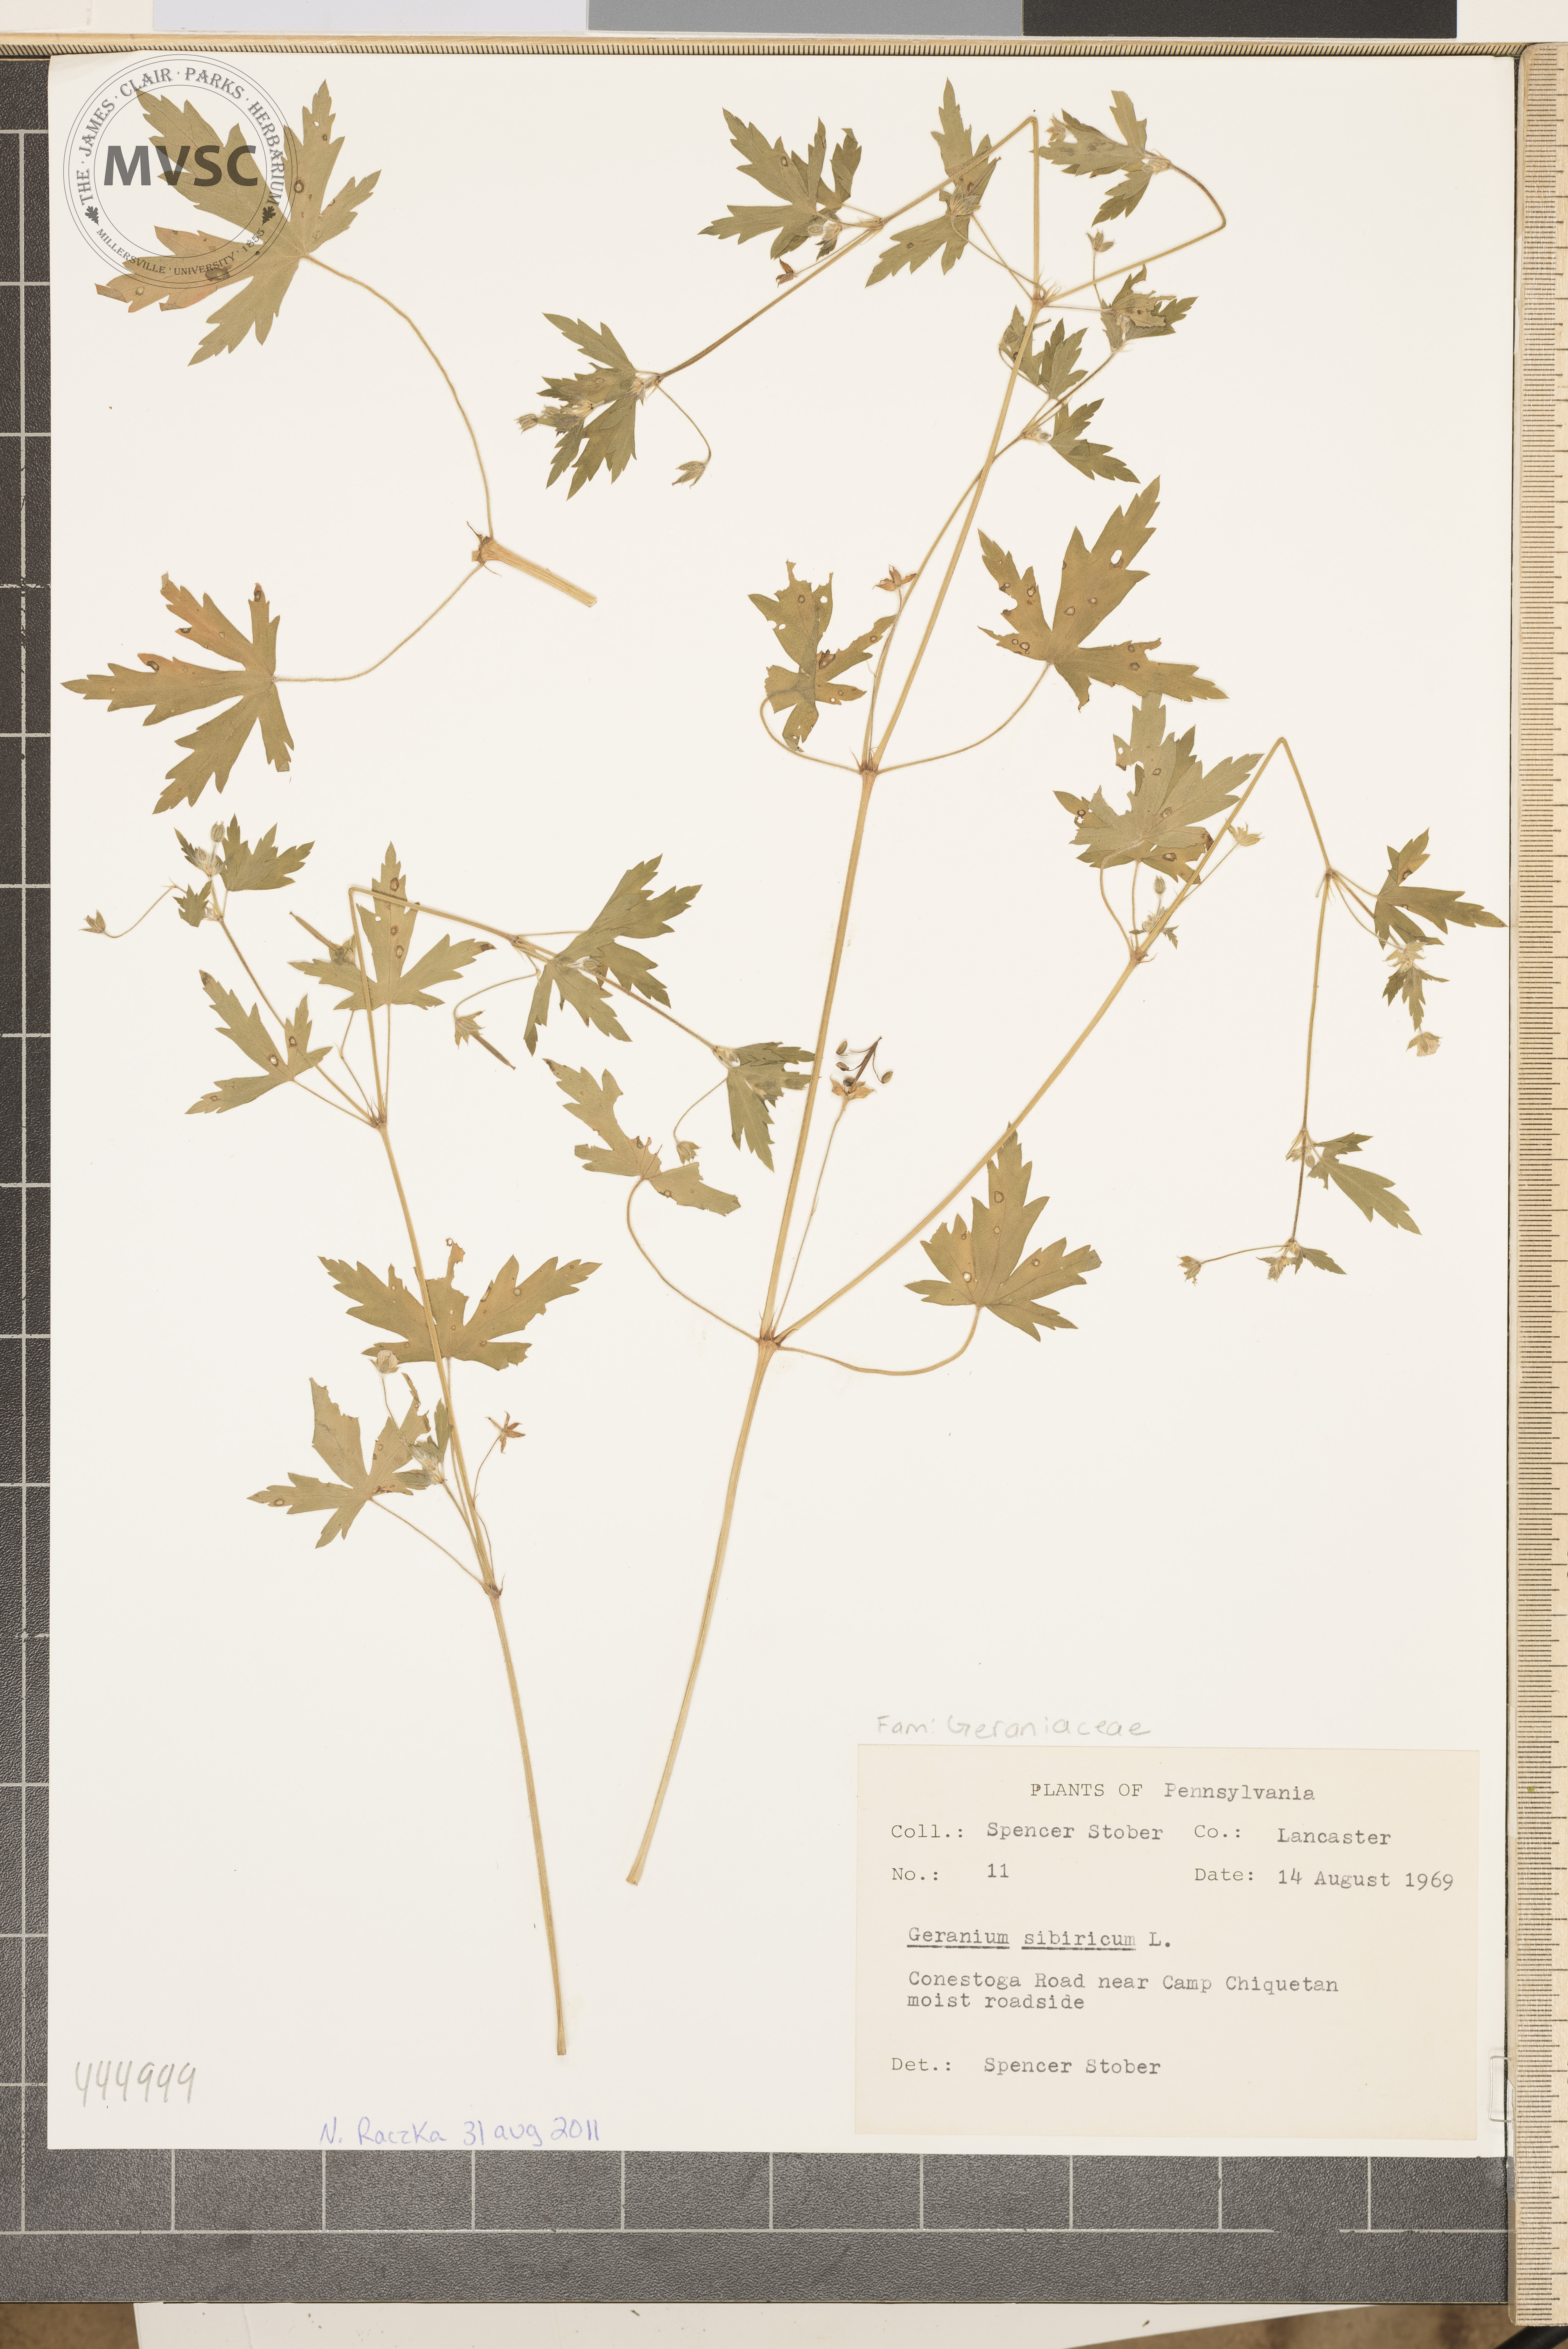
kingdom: Plantae
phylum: Tracheophyta
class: Magnoliopsida
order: Geraniales
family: Geraniaceae
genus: Geranium
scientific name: Geranium sibiricum
